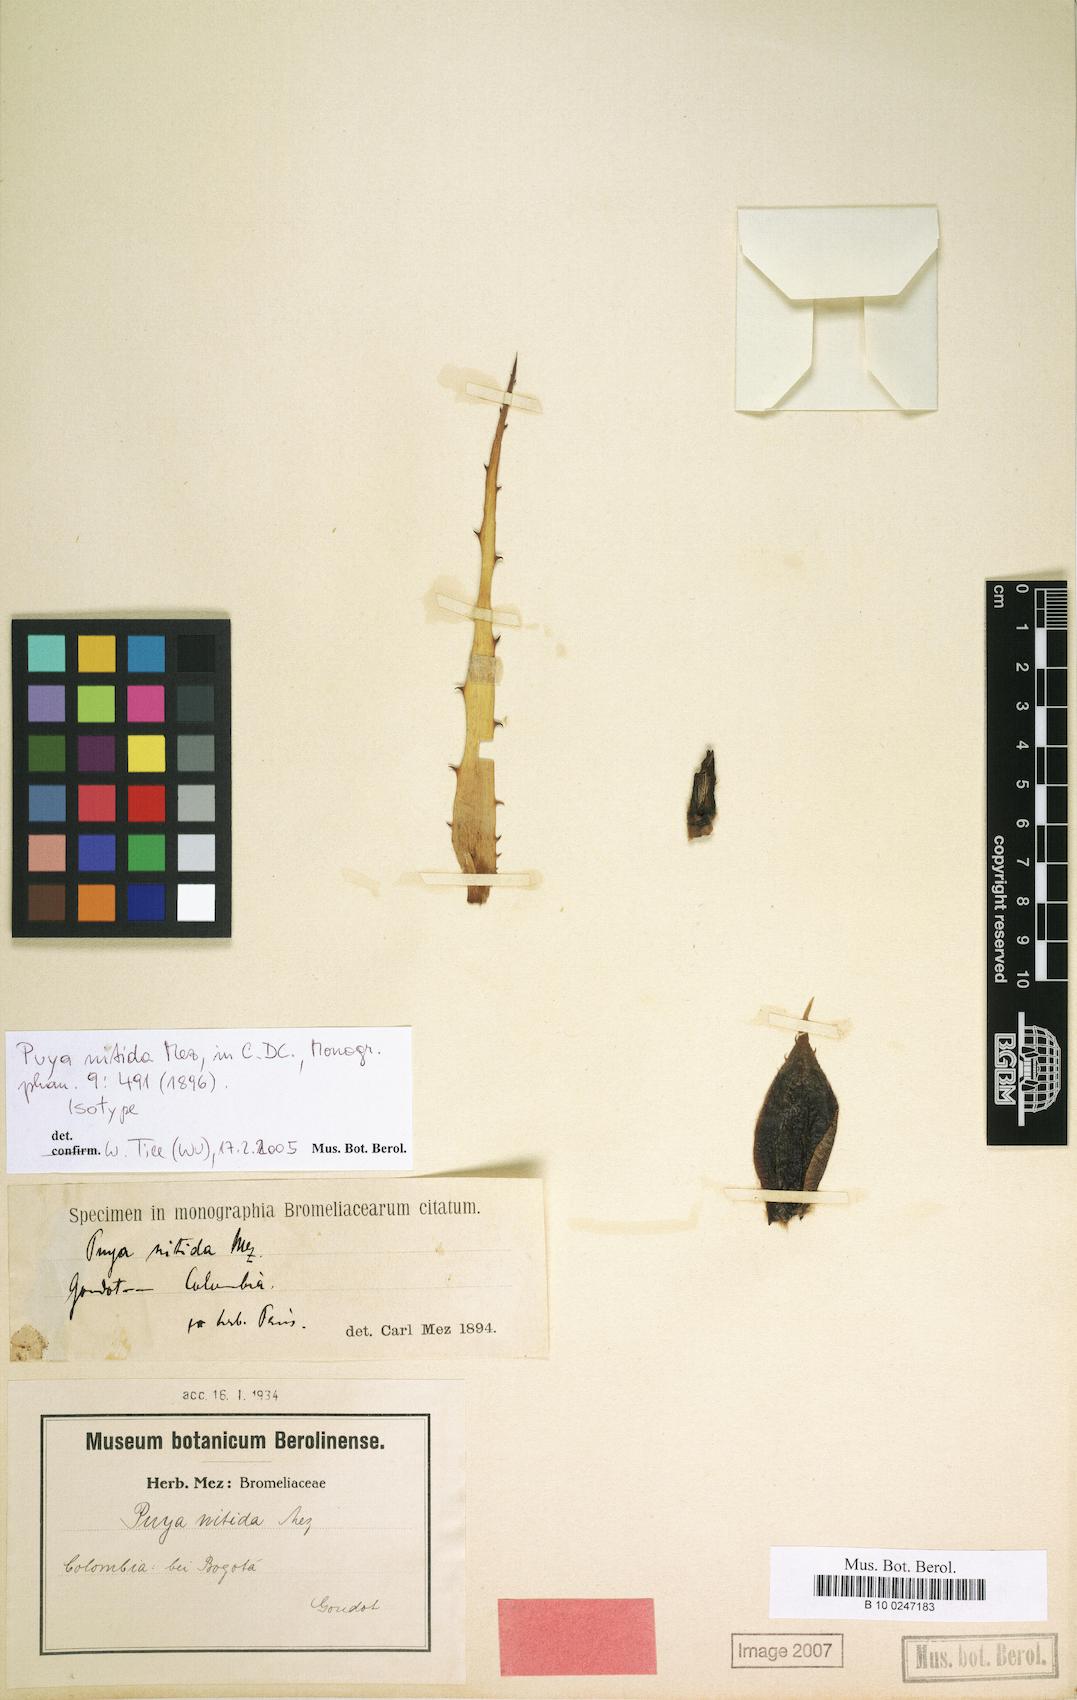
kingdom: Plantae
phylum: Tracheophyta
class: Liliopsida
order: Poales
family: Bromeliaceae
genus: Puya
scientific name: Puya nitida
